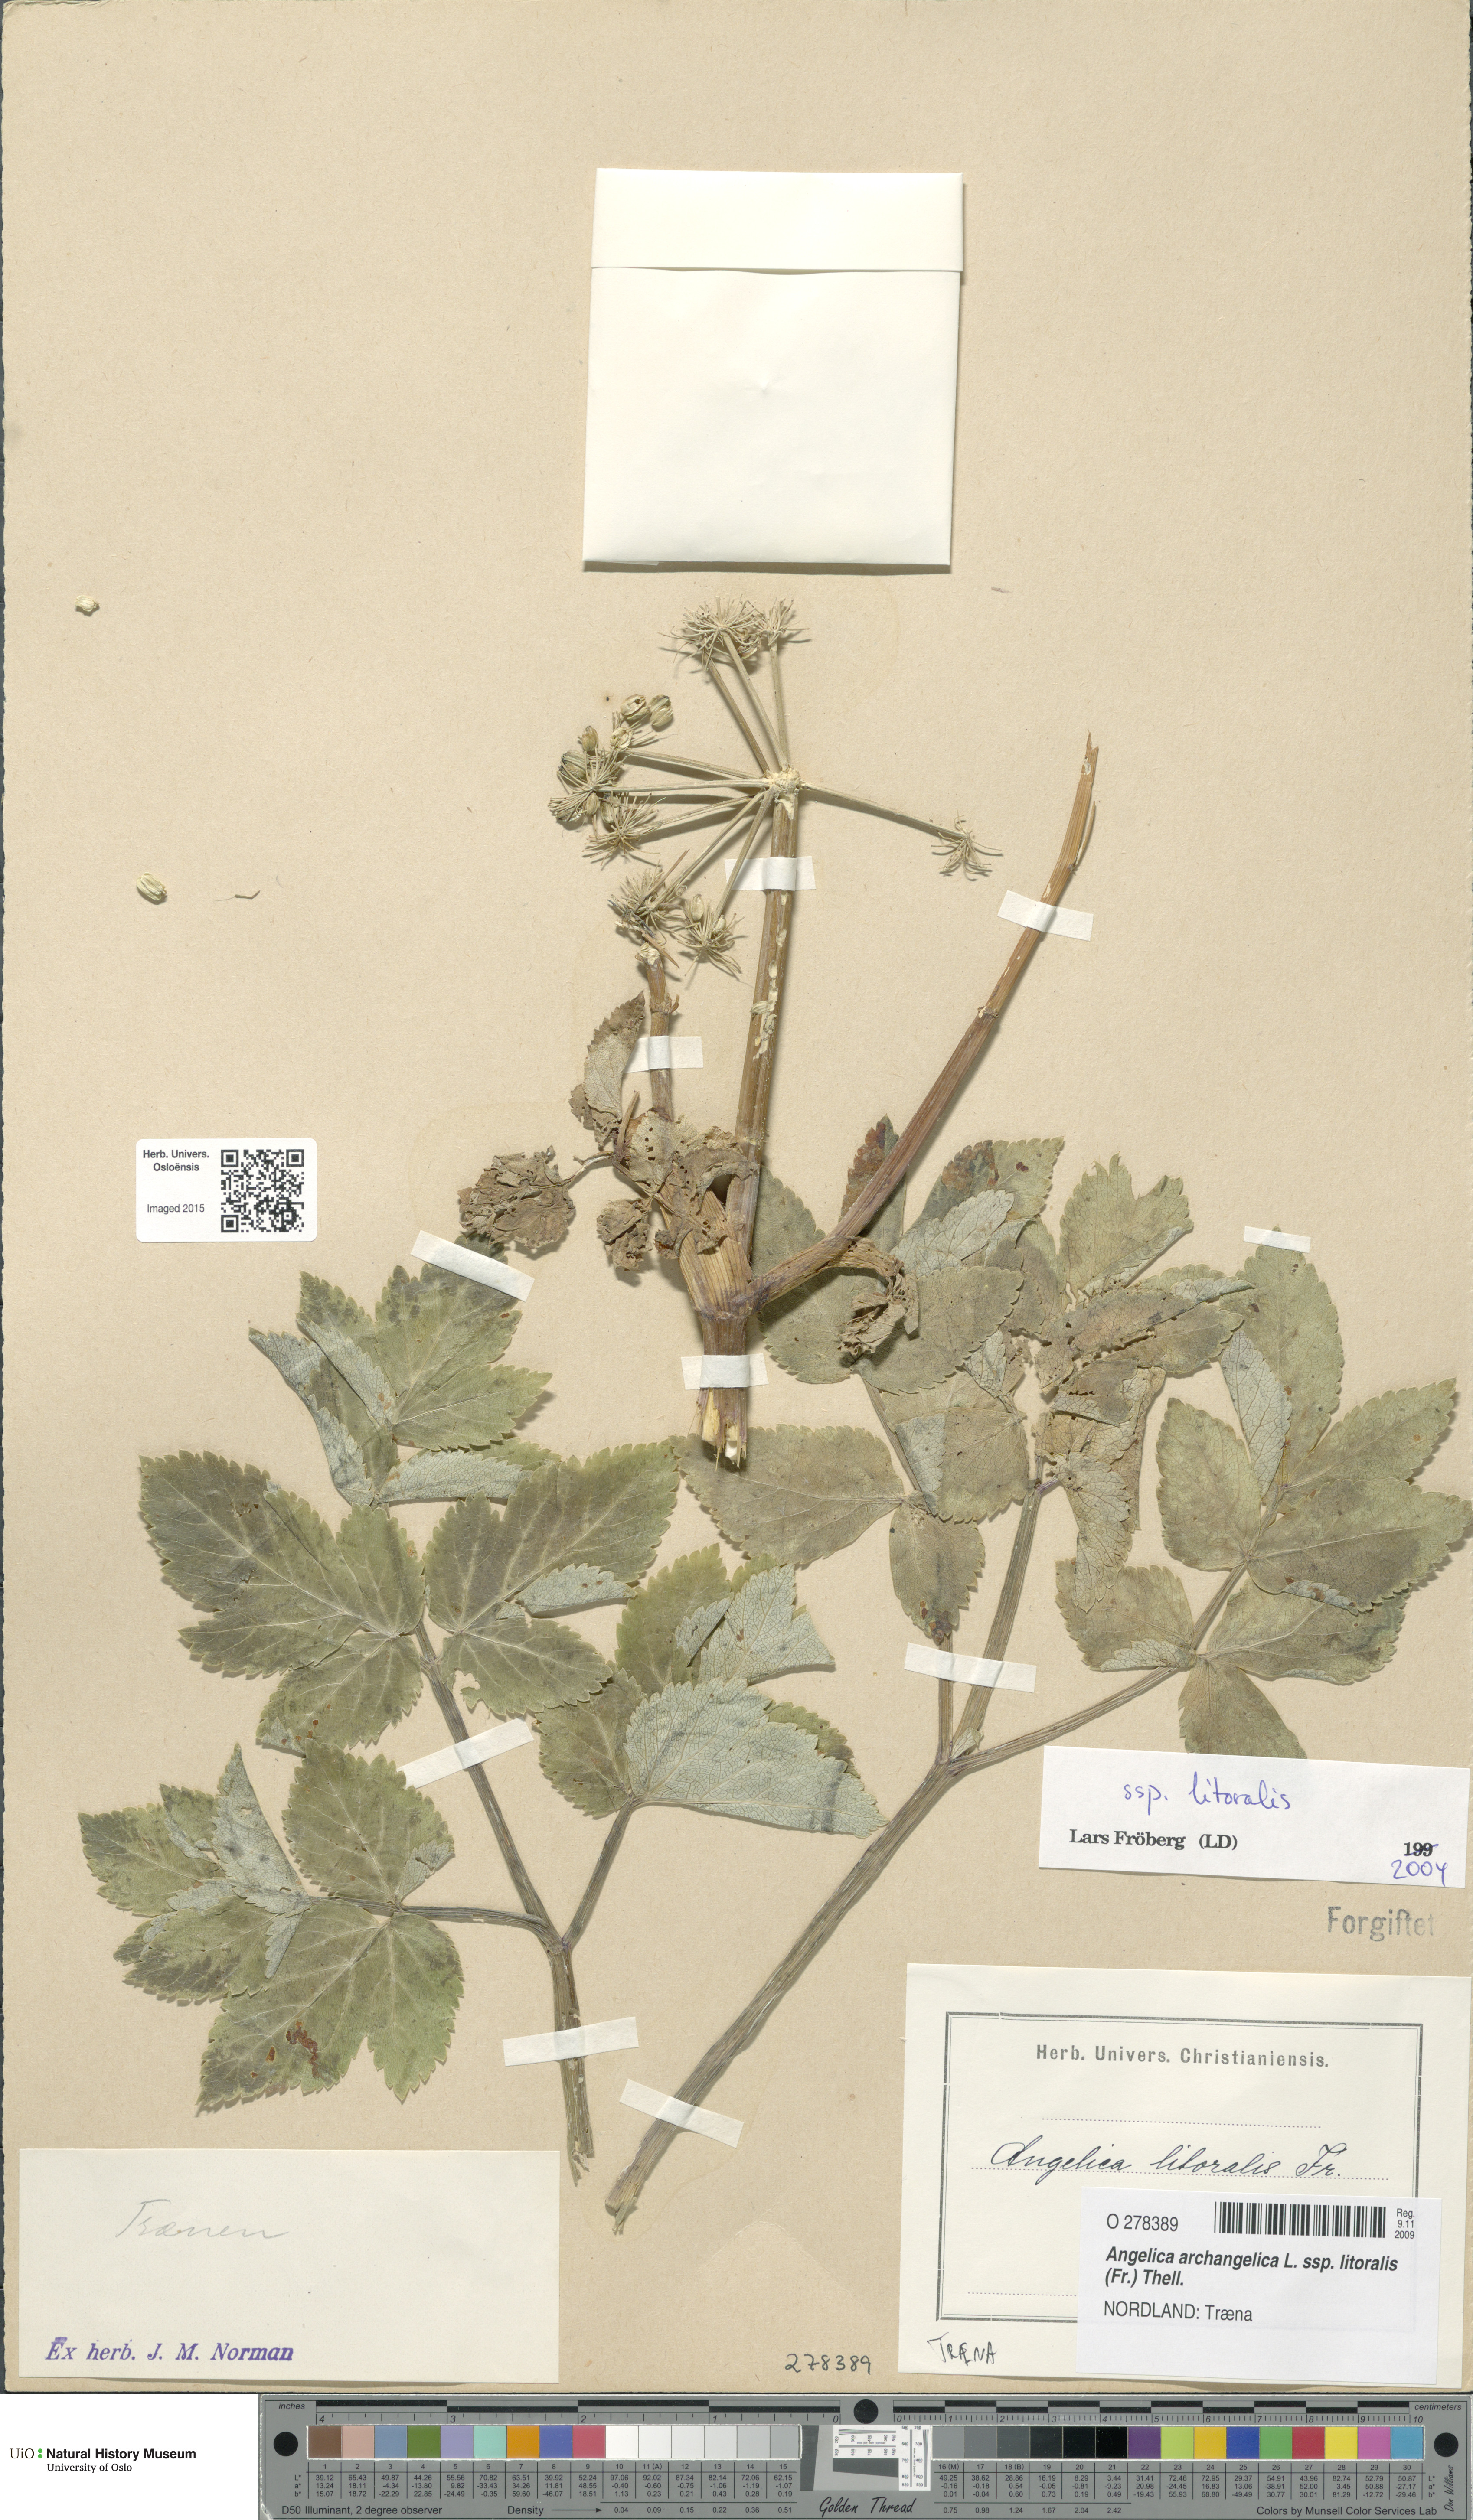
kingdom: Plantae
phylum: Tracheophyta
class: Magnoliopsida
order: Apiales
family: Apiaceae
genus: Angelica
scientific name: Angelica archangelica
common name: Garden angelica
